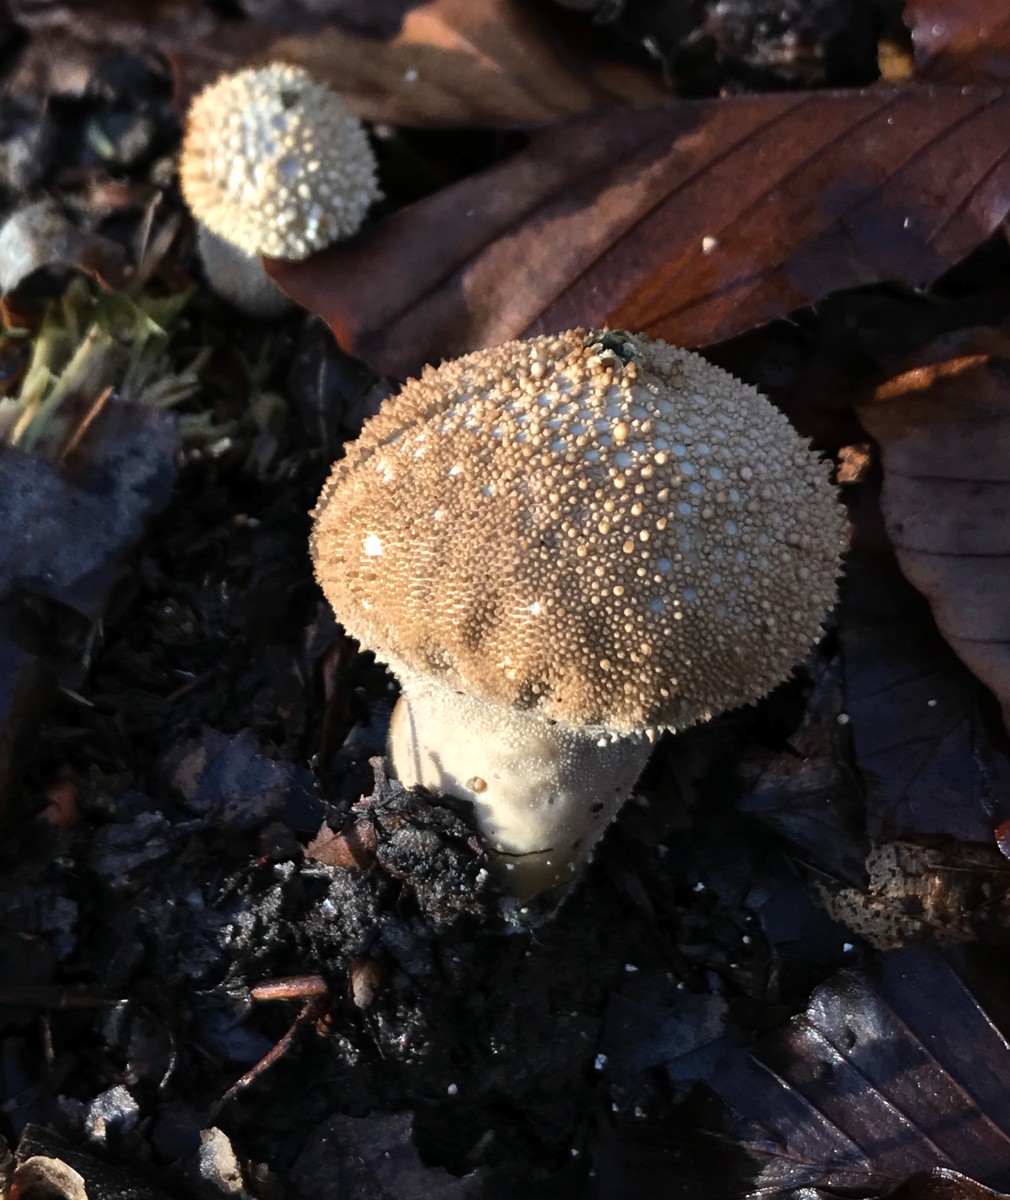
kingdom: Fungi
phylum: Basidiomycota
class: Agaricomycetes
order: Agaricales
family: Lycoperdaceae
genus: Lycoperdon
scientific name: Lycoperdon perlatum
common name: krystal-støvbold
